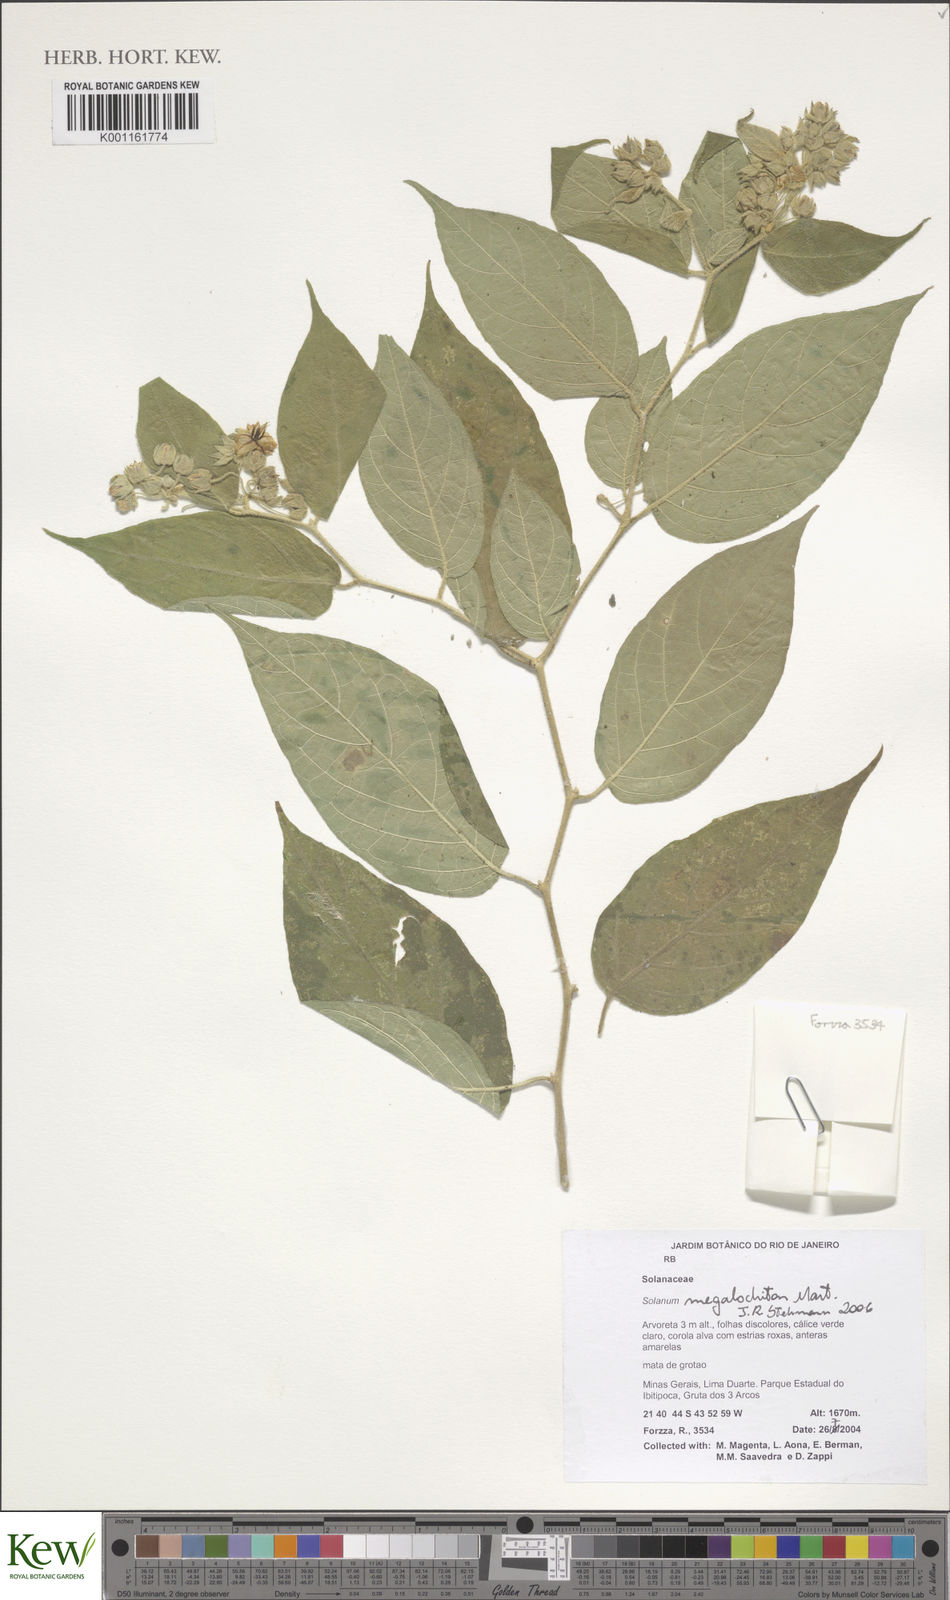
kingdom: Plantae
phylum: Tracheophyta
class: Magnoliopsida
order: Solanales
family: Solanaceae
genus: Solanum
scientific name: Solanum didymum
